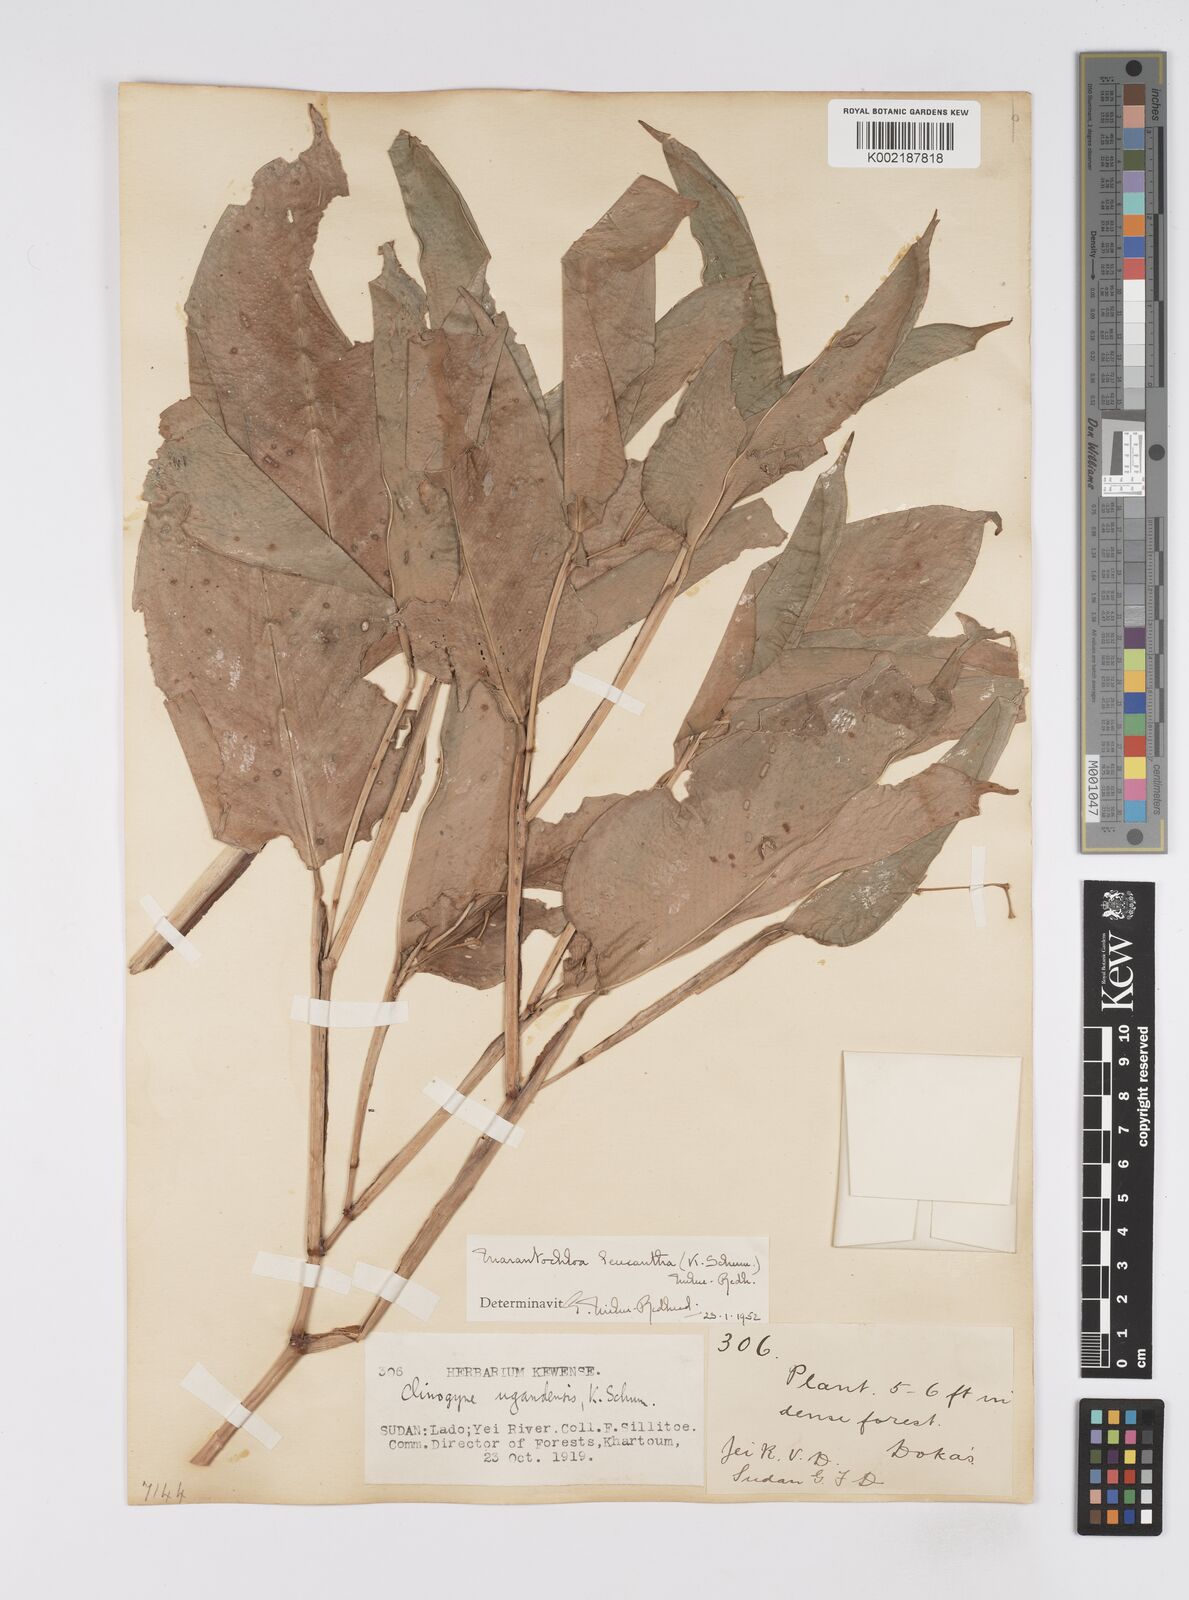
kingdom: Plantae
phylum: Tracheophyta
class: Liliopsida
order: Zingiberales
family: Marantaceae
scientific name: Marantaceae
